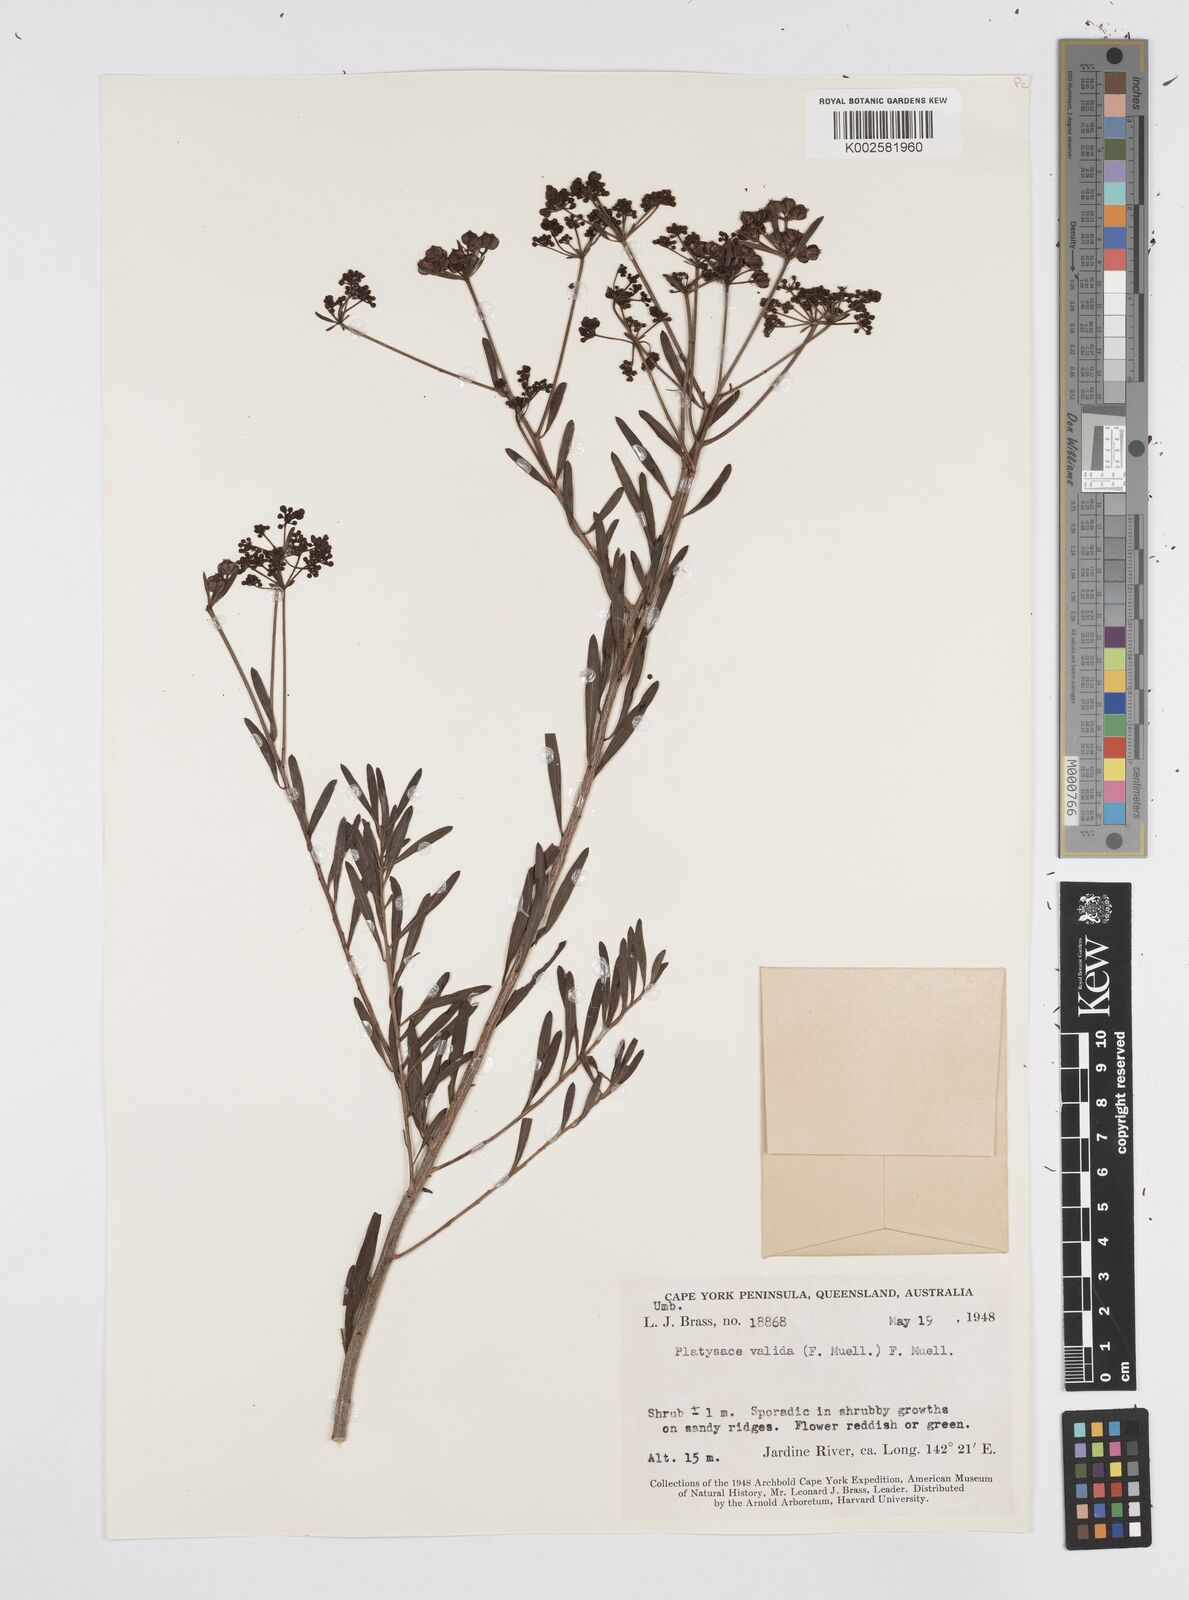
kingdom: Plantae
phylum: Tracheophyta
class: Magnoliopsida
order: Apiales
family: Apiaceae
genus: Platysace
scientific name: Platysace valida
